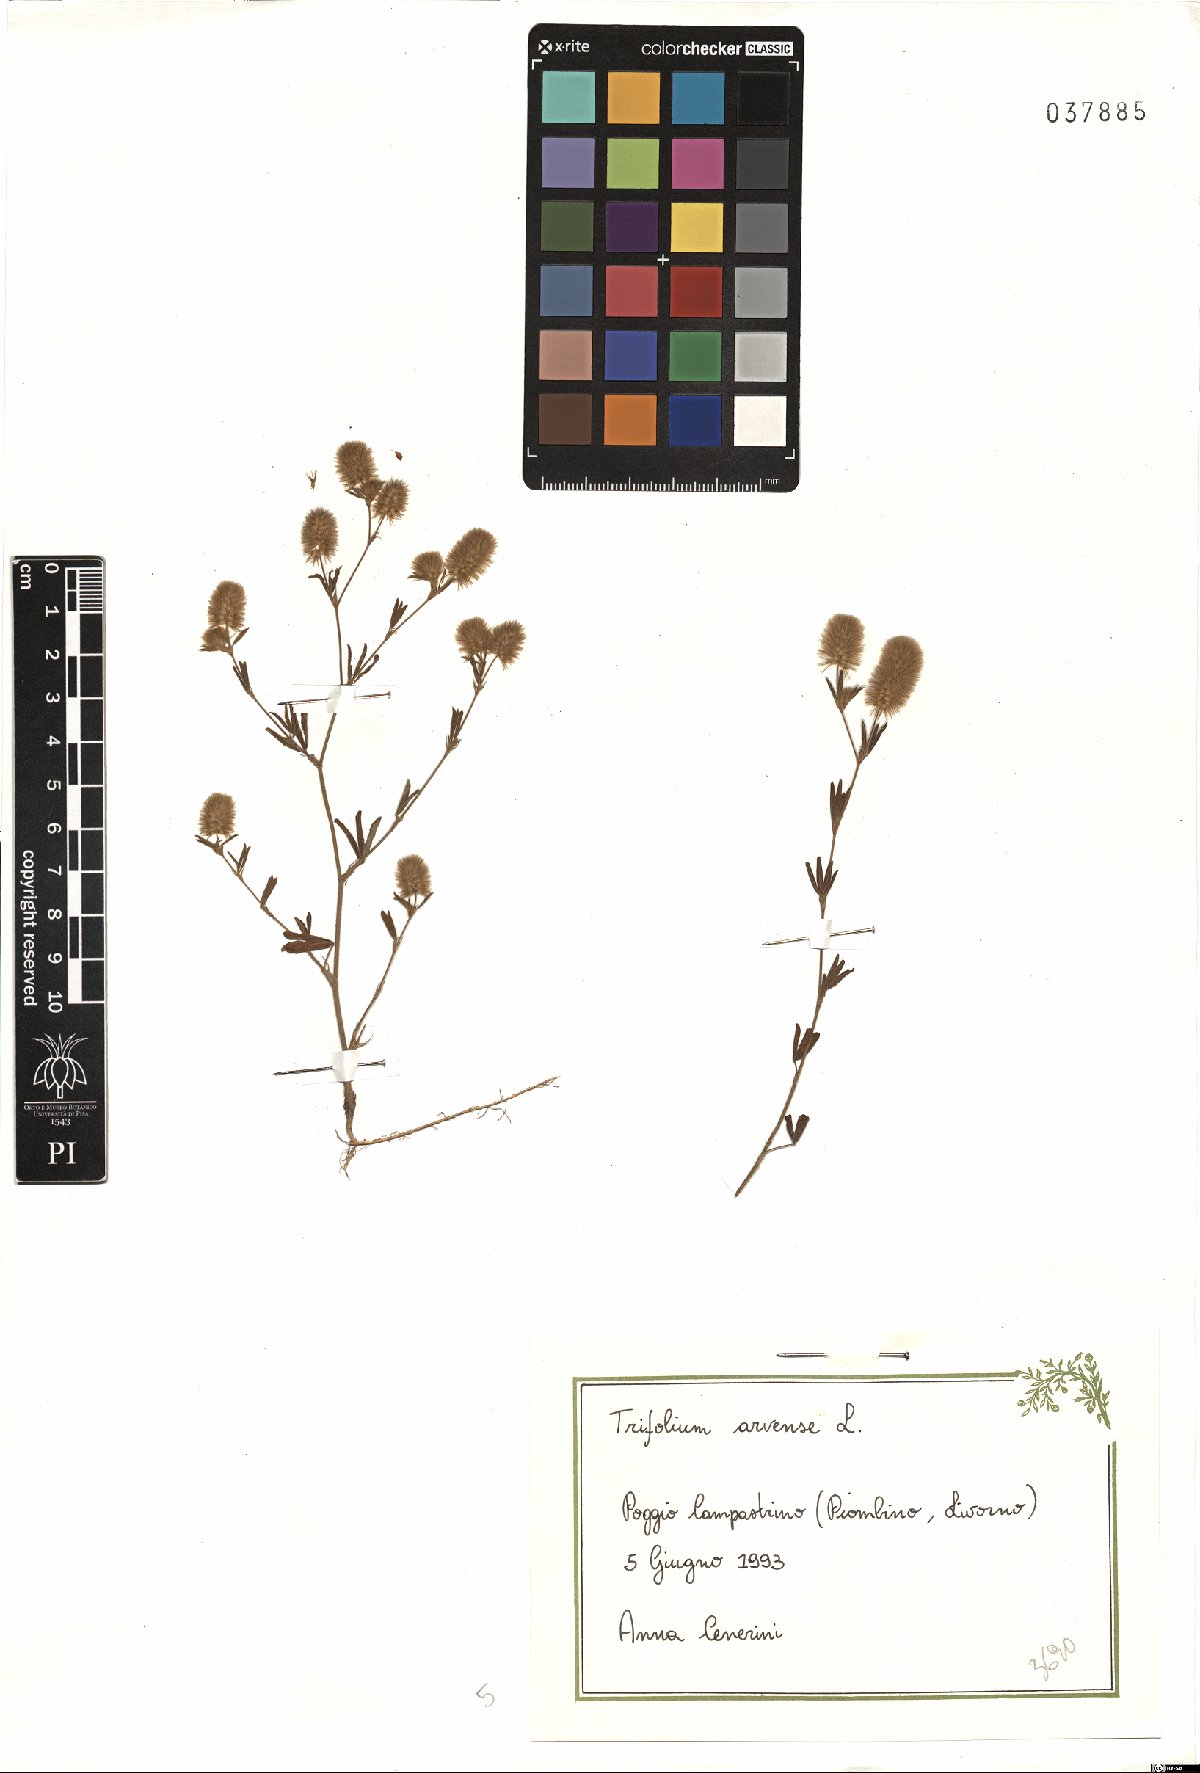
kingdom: Plantae
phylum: Tracheophyta
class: Magnoliopsida
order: Fabales
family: Fabaceae
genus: Trifolium
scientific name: Trifolium arvense
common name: Hare's-foot clover
